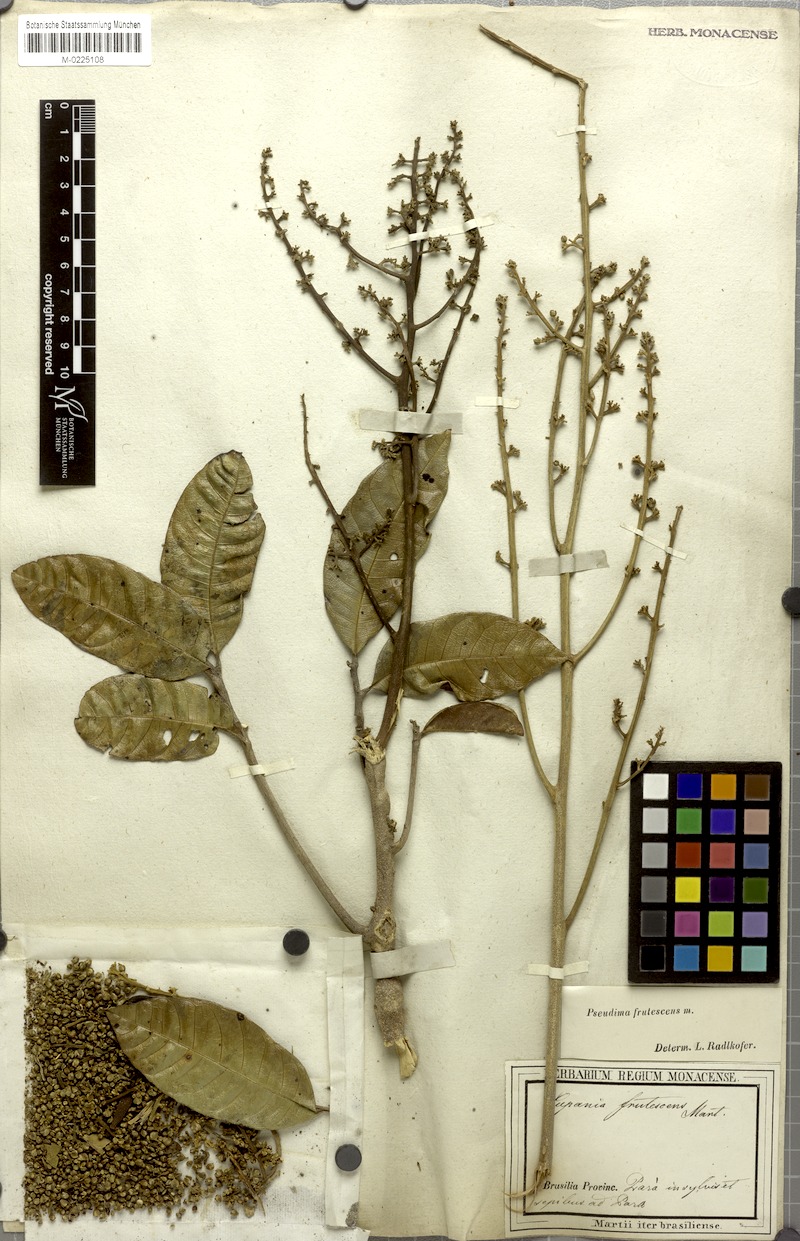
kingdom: Plantae
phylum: Tracheophyta
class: Magnoliopsida
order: Sapindales
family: Sapindaceae
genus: Pseudima
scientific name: Pseudima frutescens
